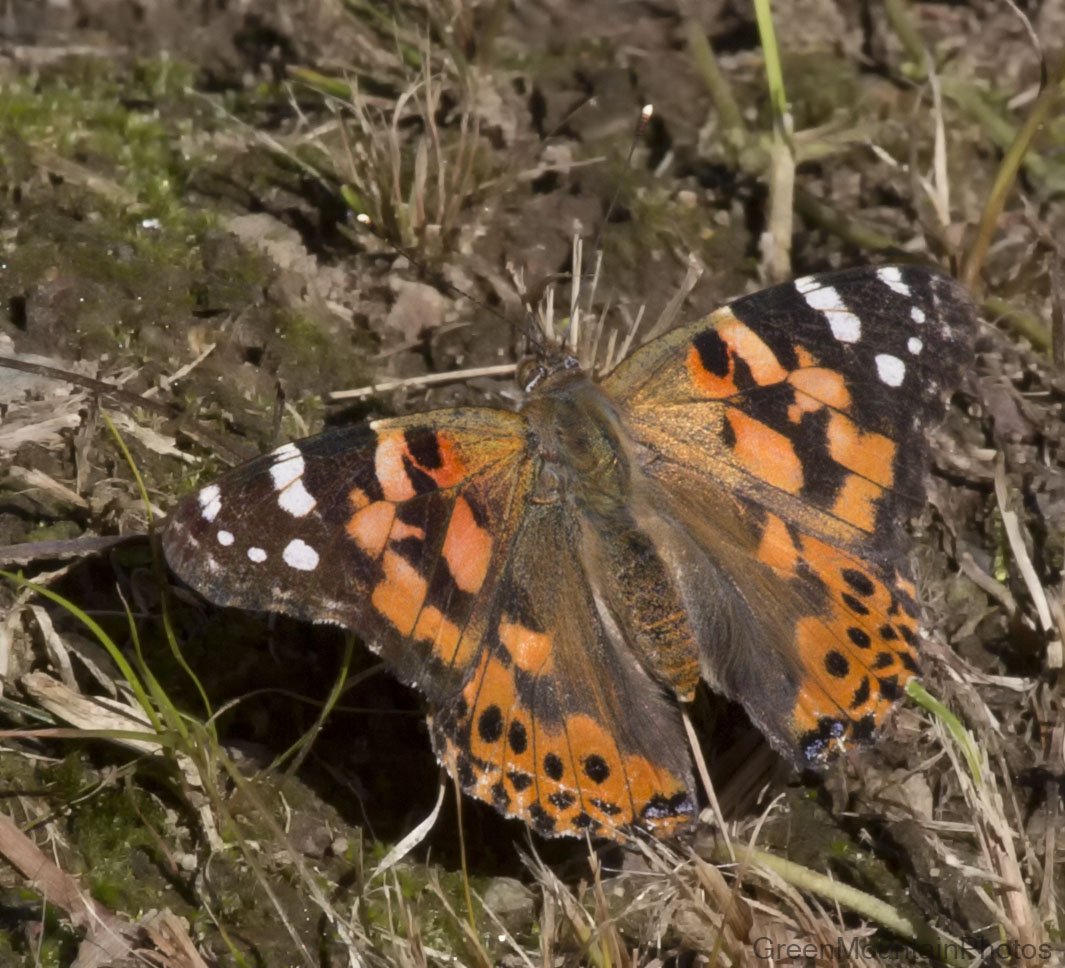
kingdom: Animalia
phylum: Arthropoda
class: Insecta
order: Lepidoptera
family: Nymphalidae
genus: Vanessa
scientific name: Vanessa cardui
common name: Painted Lady
